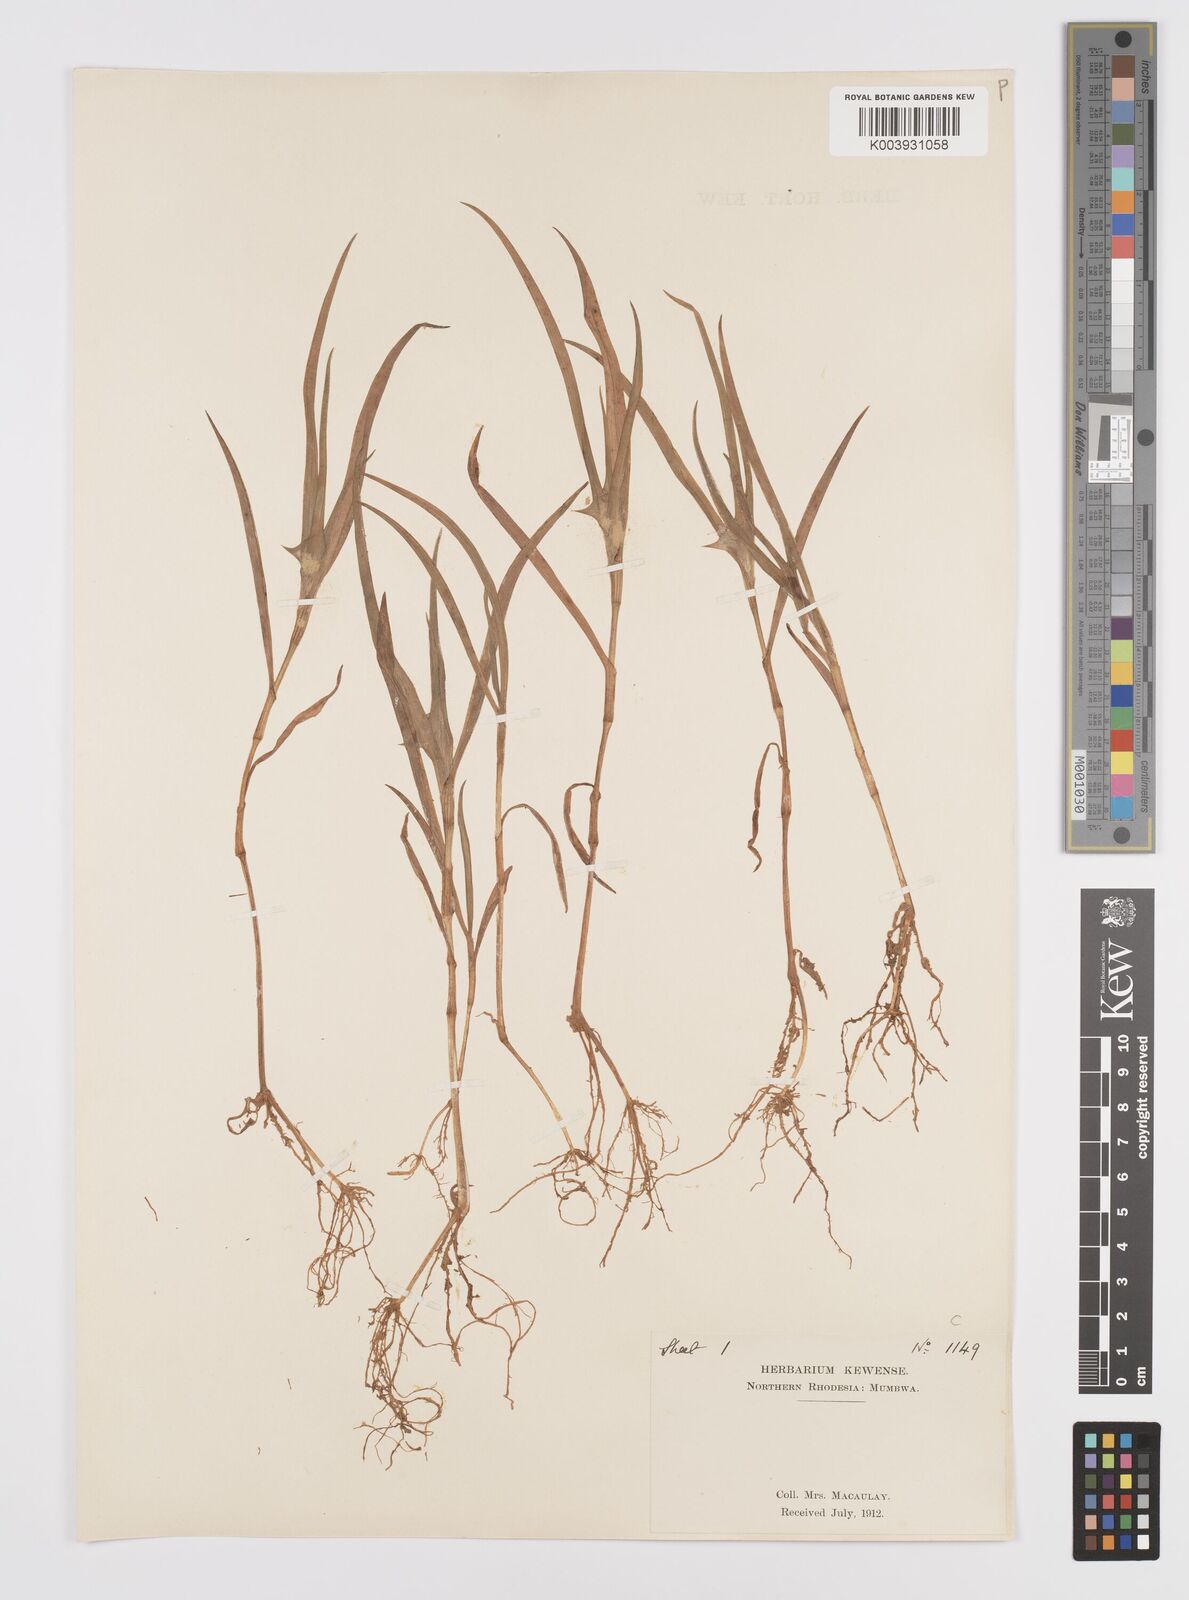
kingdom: Plantae
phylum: Tracheophyta
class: Liliopsida
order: Commelinales
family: Commelinaceae
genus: Commelina
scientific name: Commelina aspera
